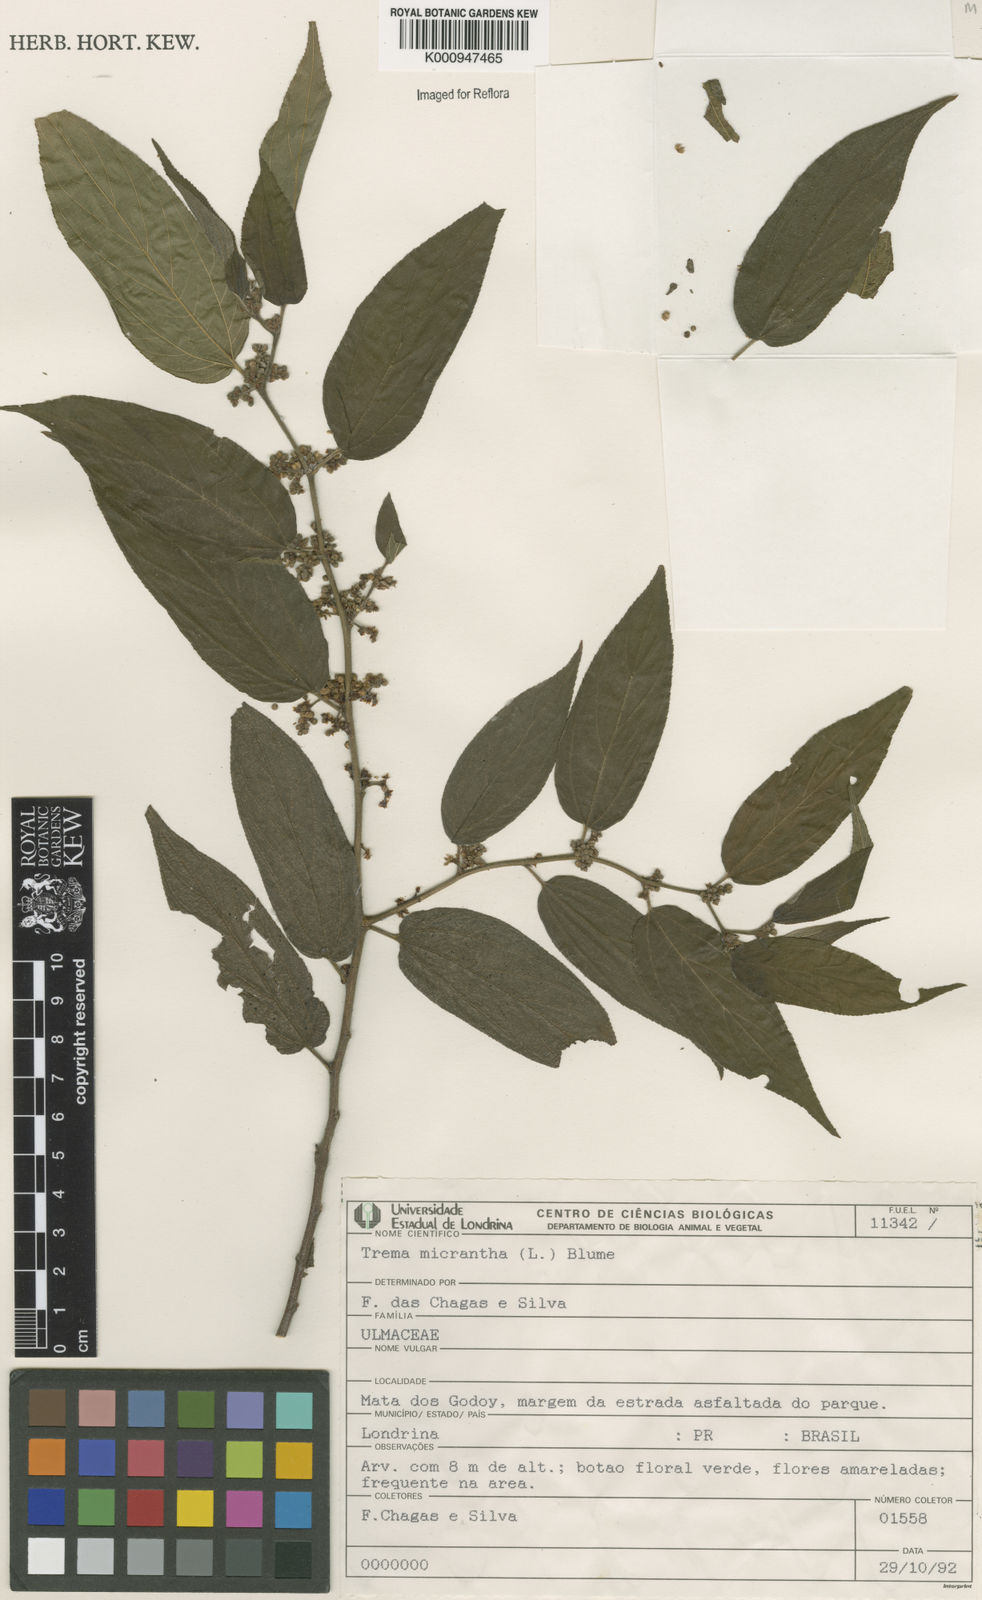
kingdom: Plantae
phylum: Tracheophyta
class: Magnoliopsida
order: Rosales
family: Cannabaceae
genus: Trema
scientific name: Trema micranthum
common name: Jamaican nettletree
